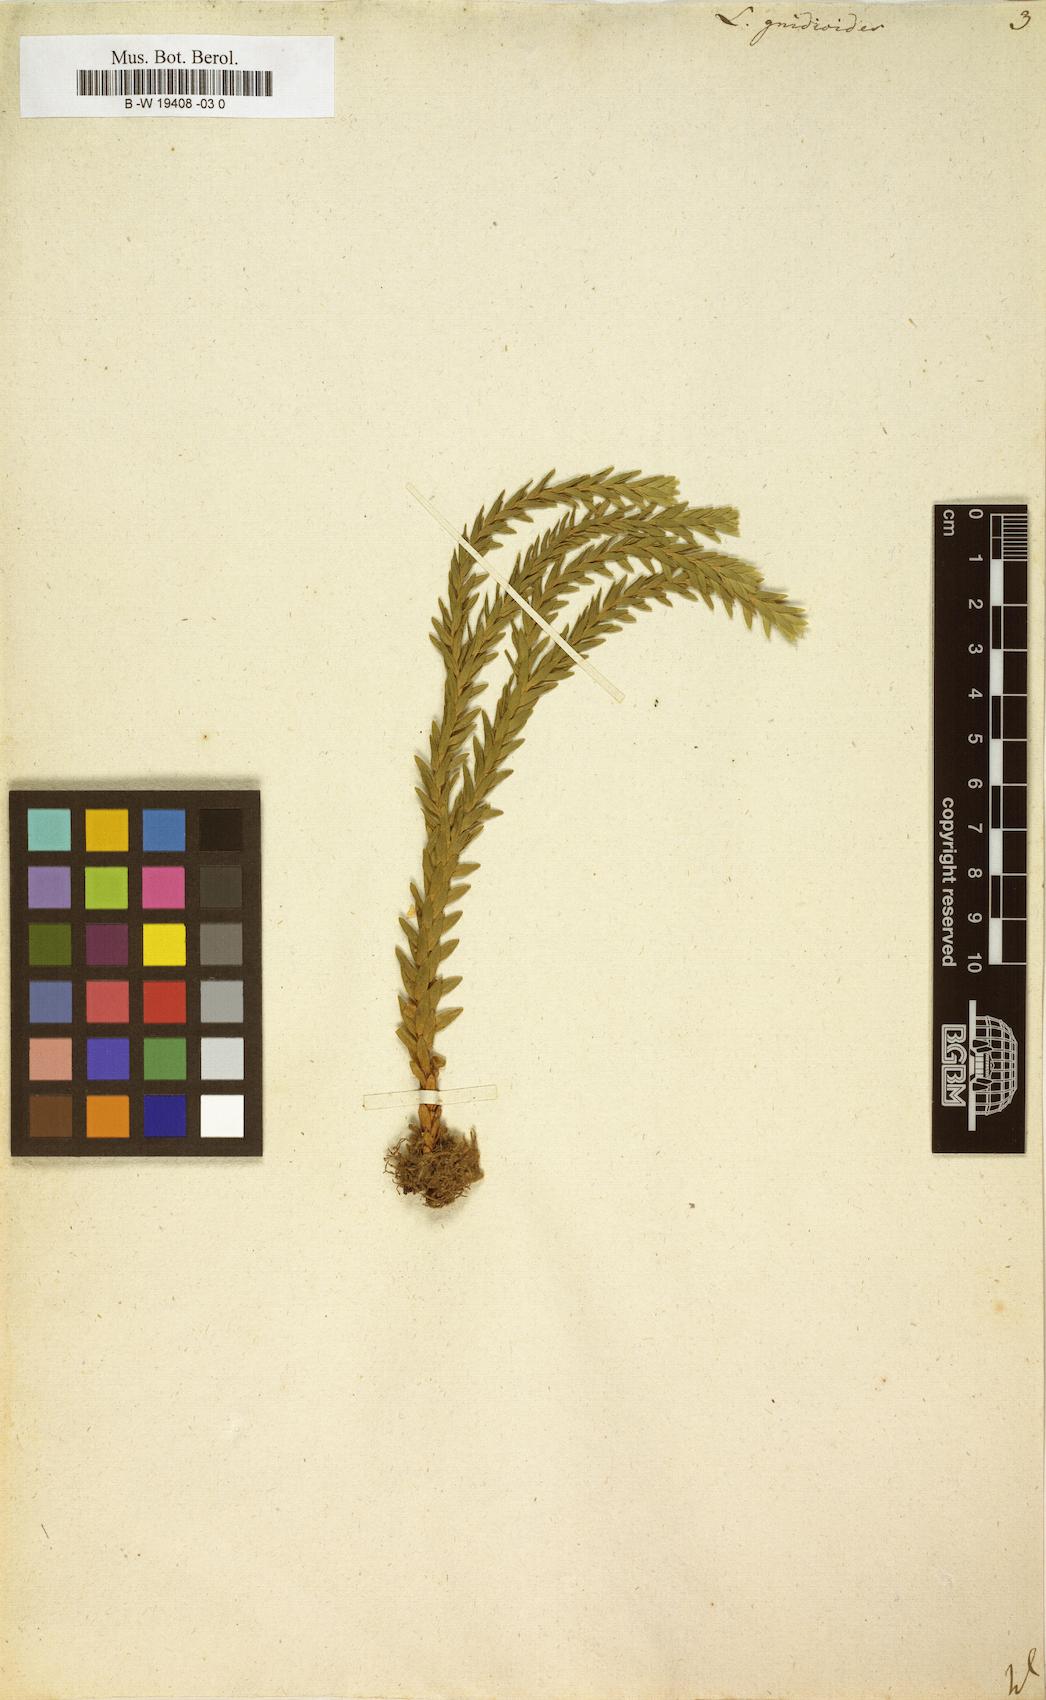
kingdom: Plantae
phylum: Tracheophyta
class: Lycopodiopsida
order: Lycopodiales
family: Lycopodiaceae
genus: Phlegmariurus
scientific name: Phlegmariurus
